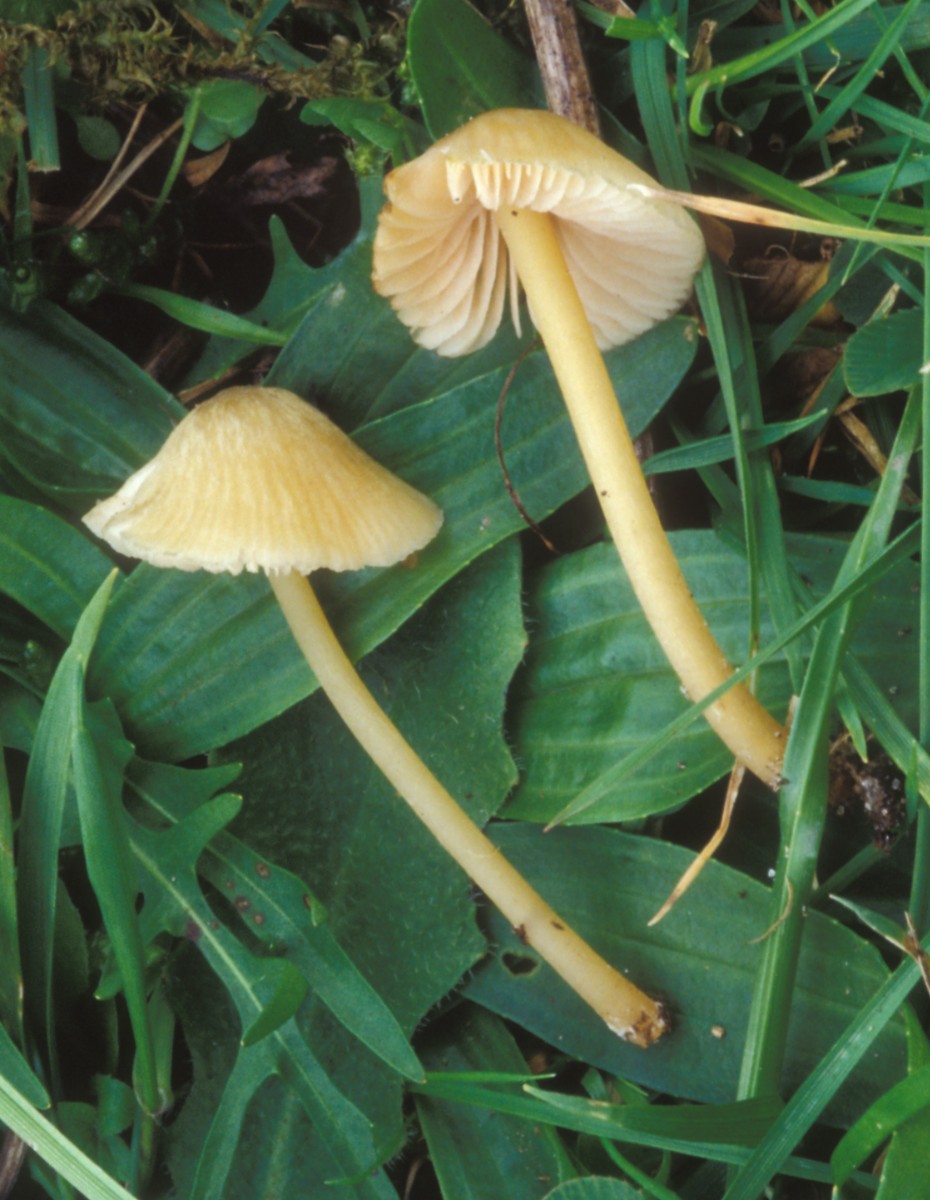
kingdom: Fungi
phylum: Basidiomycota
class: Agaricomycetes
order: Agaricales
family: Entolomataceae
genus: Entoloma
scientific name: Entoloma ochromicaceum
